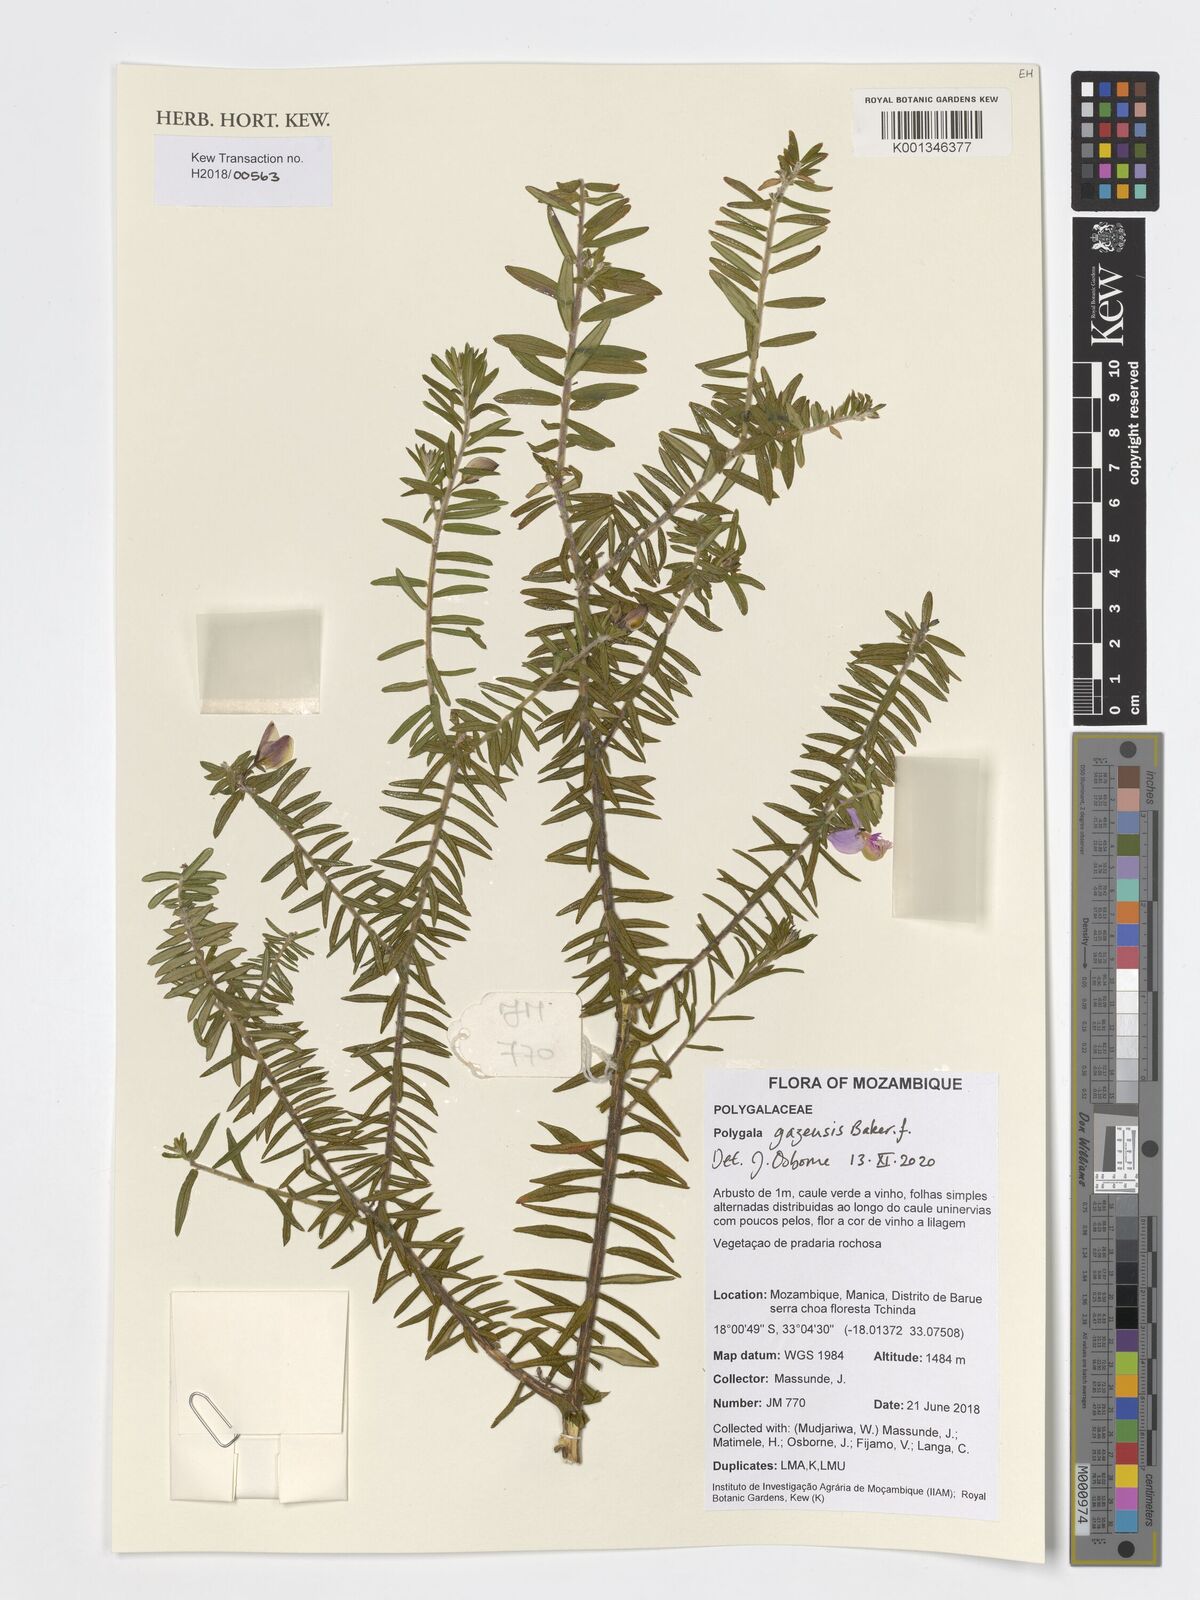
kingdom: Plantae
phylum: Tracheophyta
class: Magnoliopsida
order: Fabales
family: Polygalaceae
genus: Polygala
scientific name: Polygala gazensis
